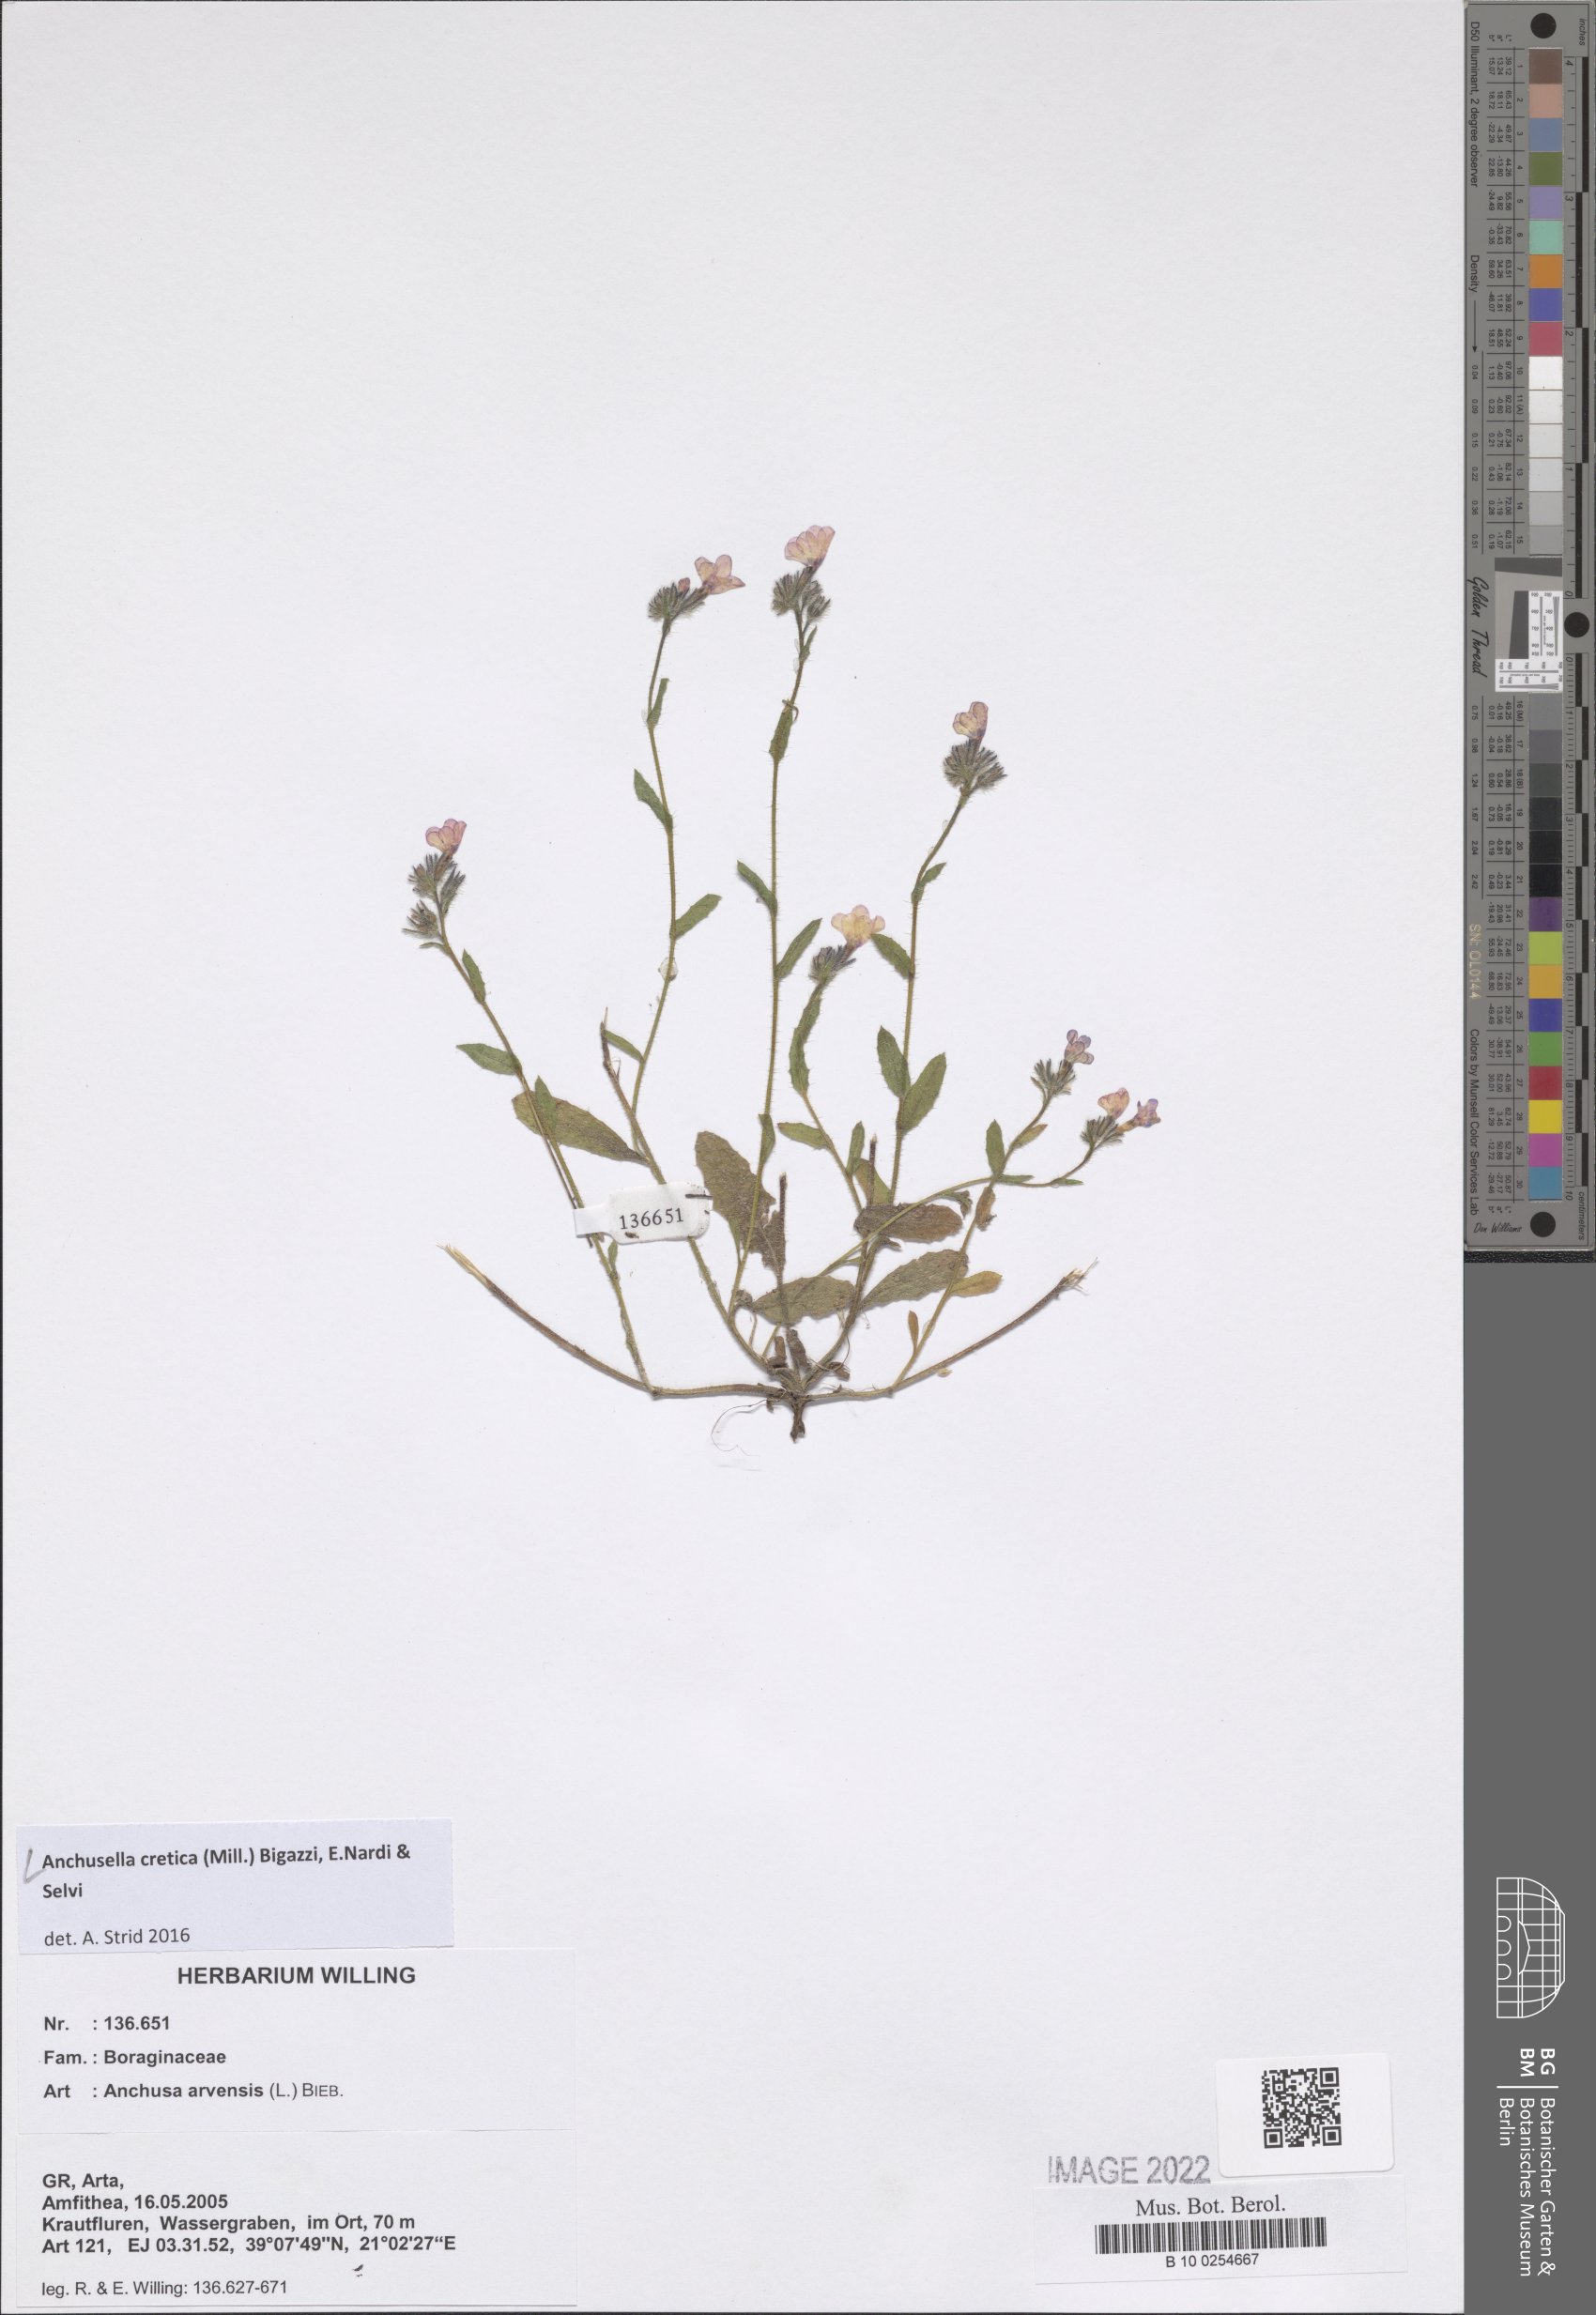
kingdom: Plantae
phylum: Tracheophyta
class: Magnoliopsida
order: Boraginales
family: Boraginaceae
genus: Anchusella
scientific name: Anchusella cretica
